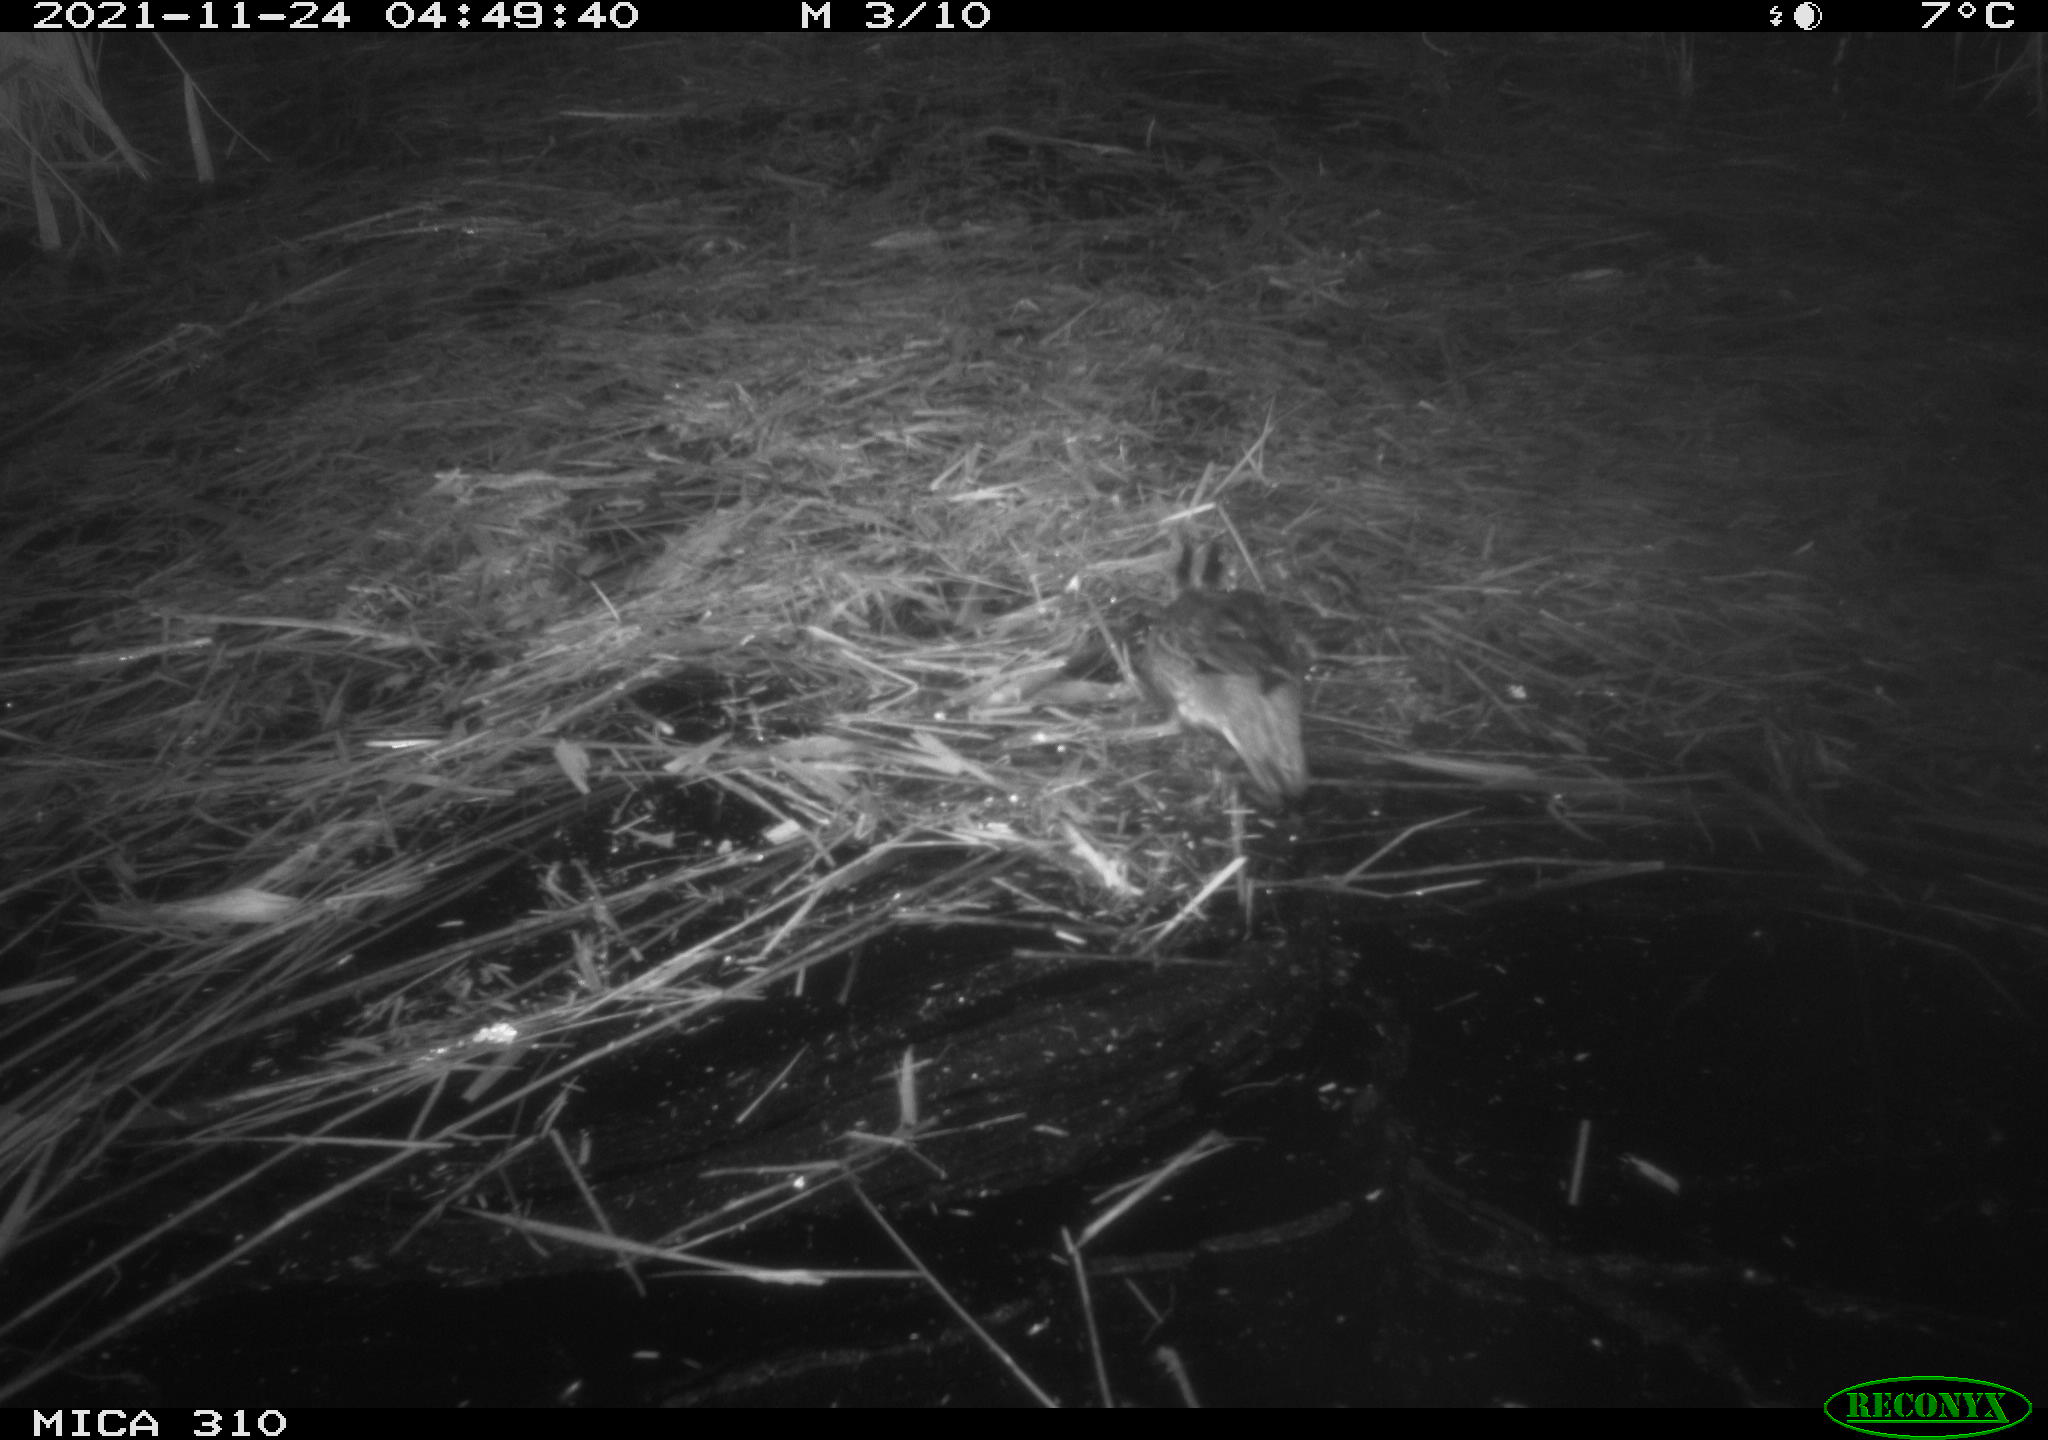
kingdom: Animalia
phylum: Chordata
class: Aves
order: Anseriformes
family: Anatidae
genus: Anas
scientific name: Anas crecca
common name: Eurasian teal
